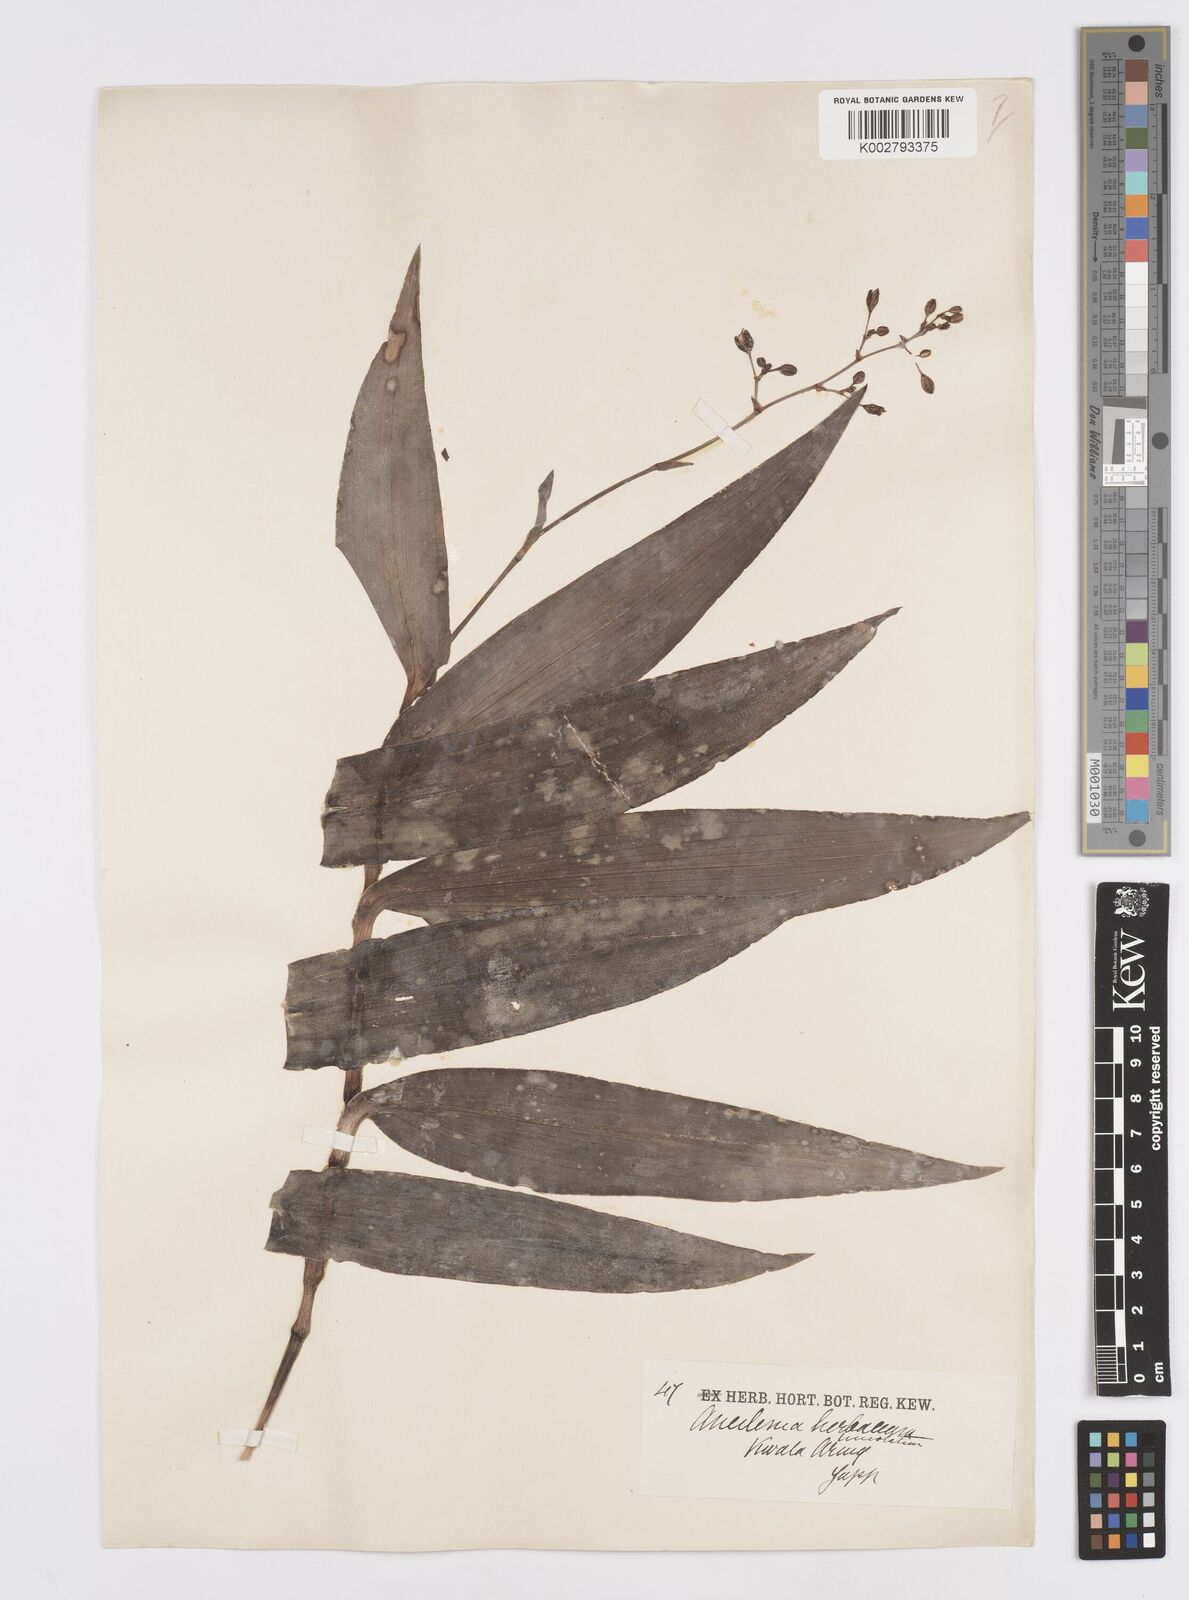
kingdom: Plantae
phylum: Tracheophyta
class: Liliopsida
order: Commelinales
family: Commelinaceae
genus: Murdannia
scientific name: Murdannia japonica
